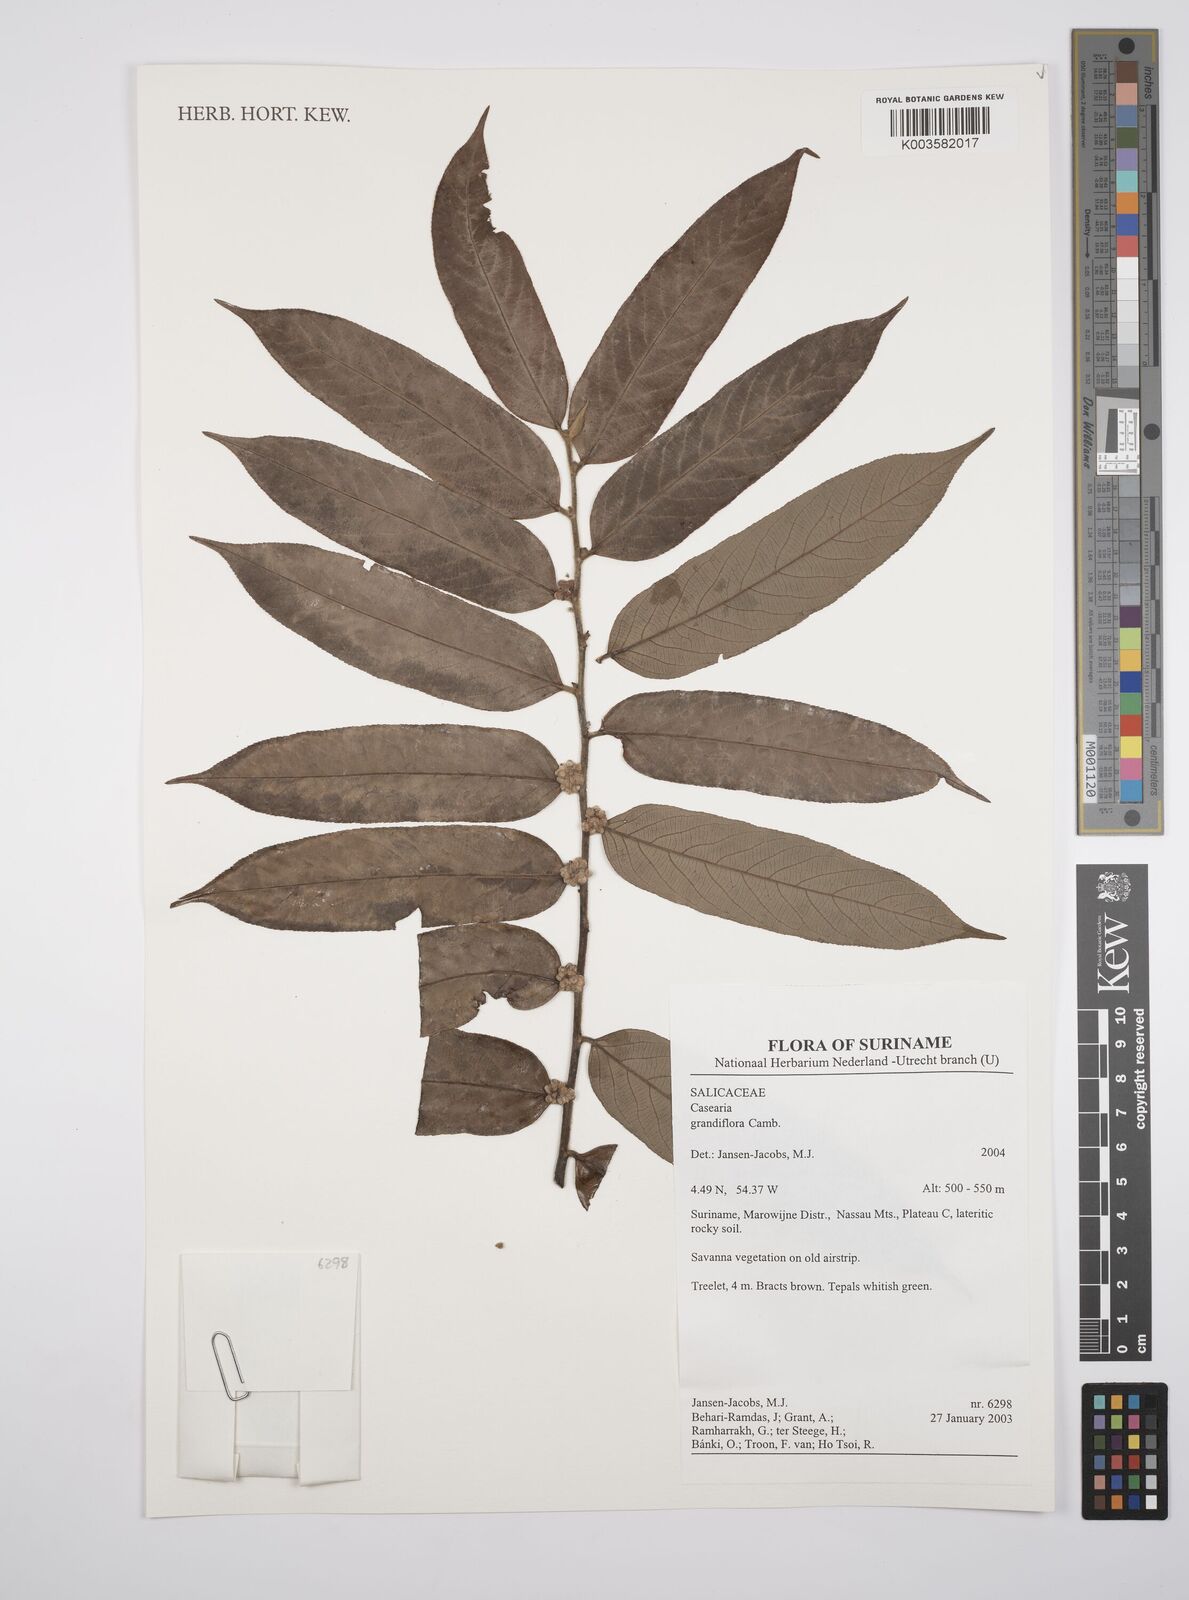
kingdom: Plantae
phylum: Tracheophyta
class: Magnoliopsida
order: Malpighiales
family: Salicaceae
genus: Casearia
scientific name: Casearia grandiflora
